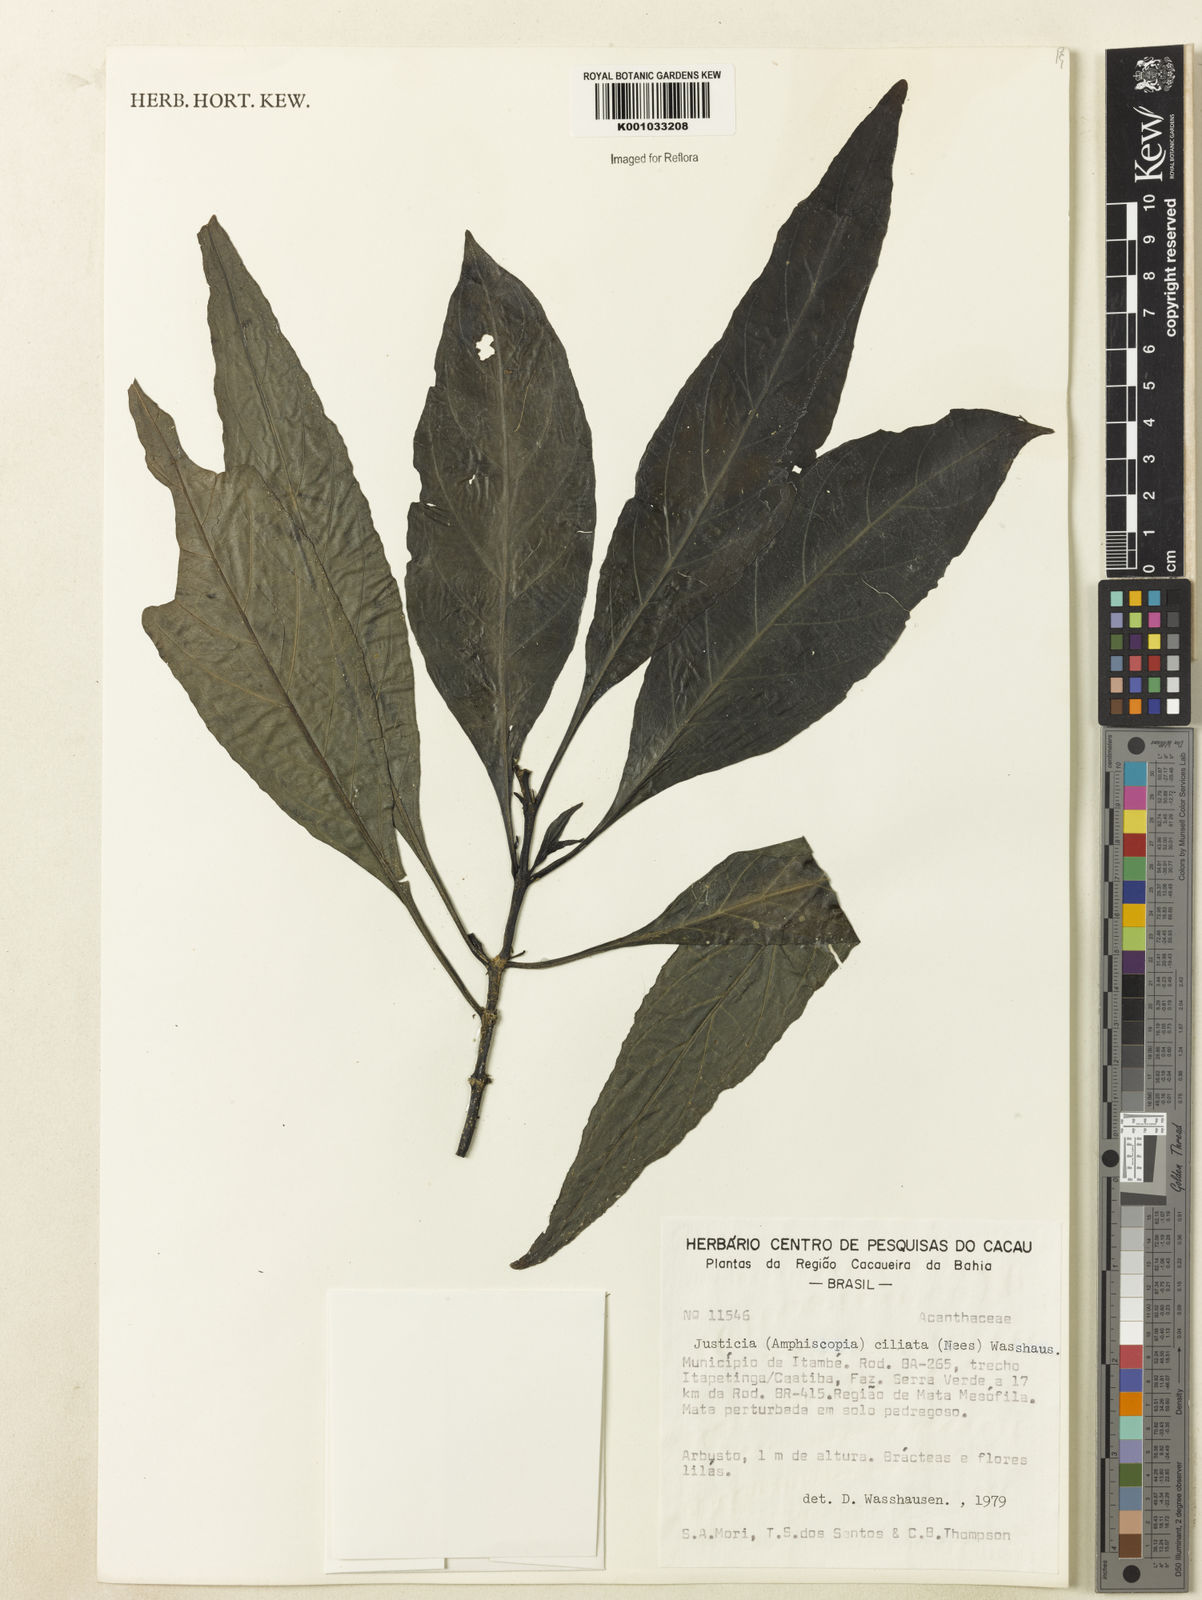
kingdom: Plantae
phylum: Tracheophyta
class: Magnoliopsida
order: Lamiales
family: Acanthaceae
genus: Pogonospermum
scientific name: Pogonospermum ciliare
